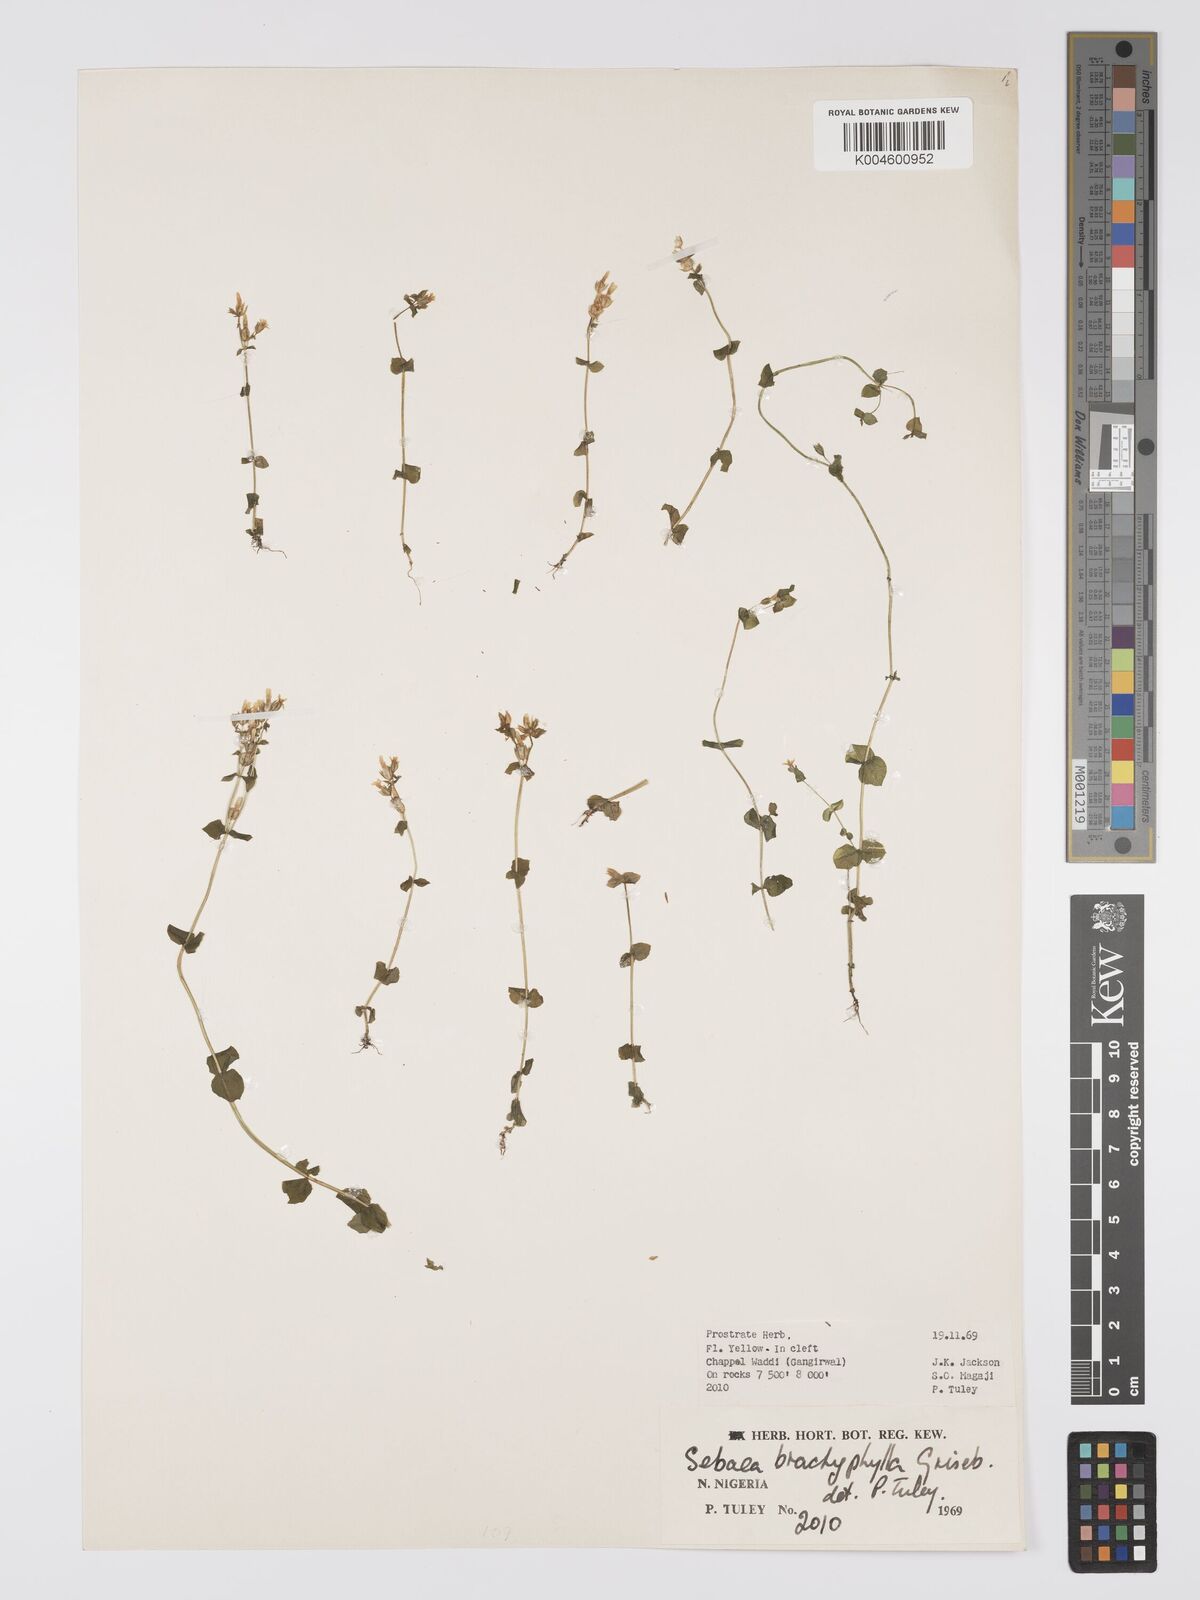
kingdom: Plantae
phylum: Tracheophyta
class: Magnoliopsida
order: Gentianales
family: Gentianaceae
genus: Sebaea
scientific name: Sebaea brachyphylla
